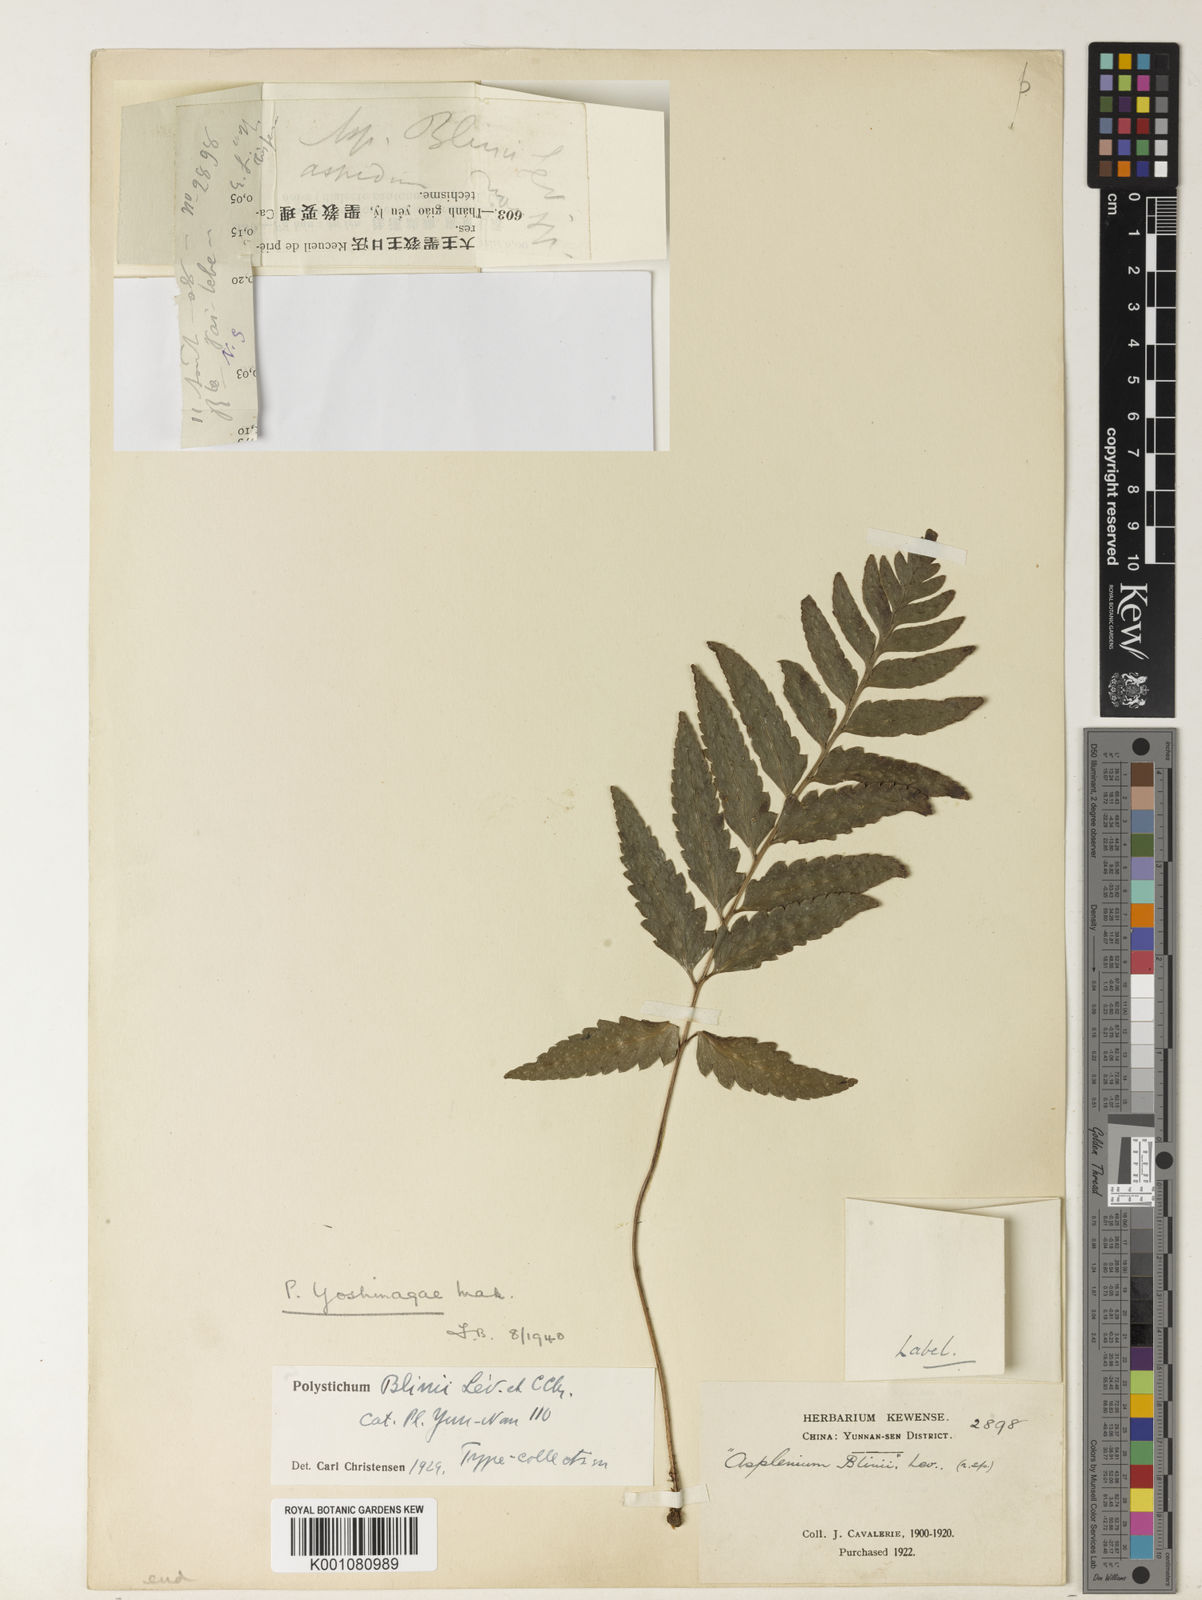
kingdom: Plantae
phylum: Tracheophyta
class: Polypodiopsida
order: Polypodiales
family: Dryopteridaceae
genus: Arachniodes
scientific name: Arachniodes assamica
